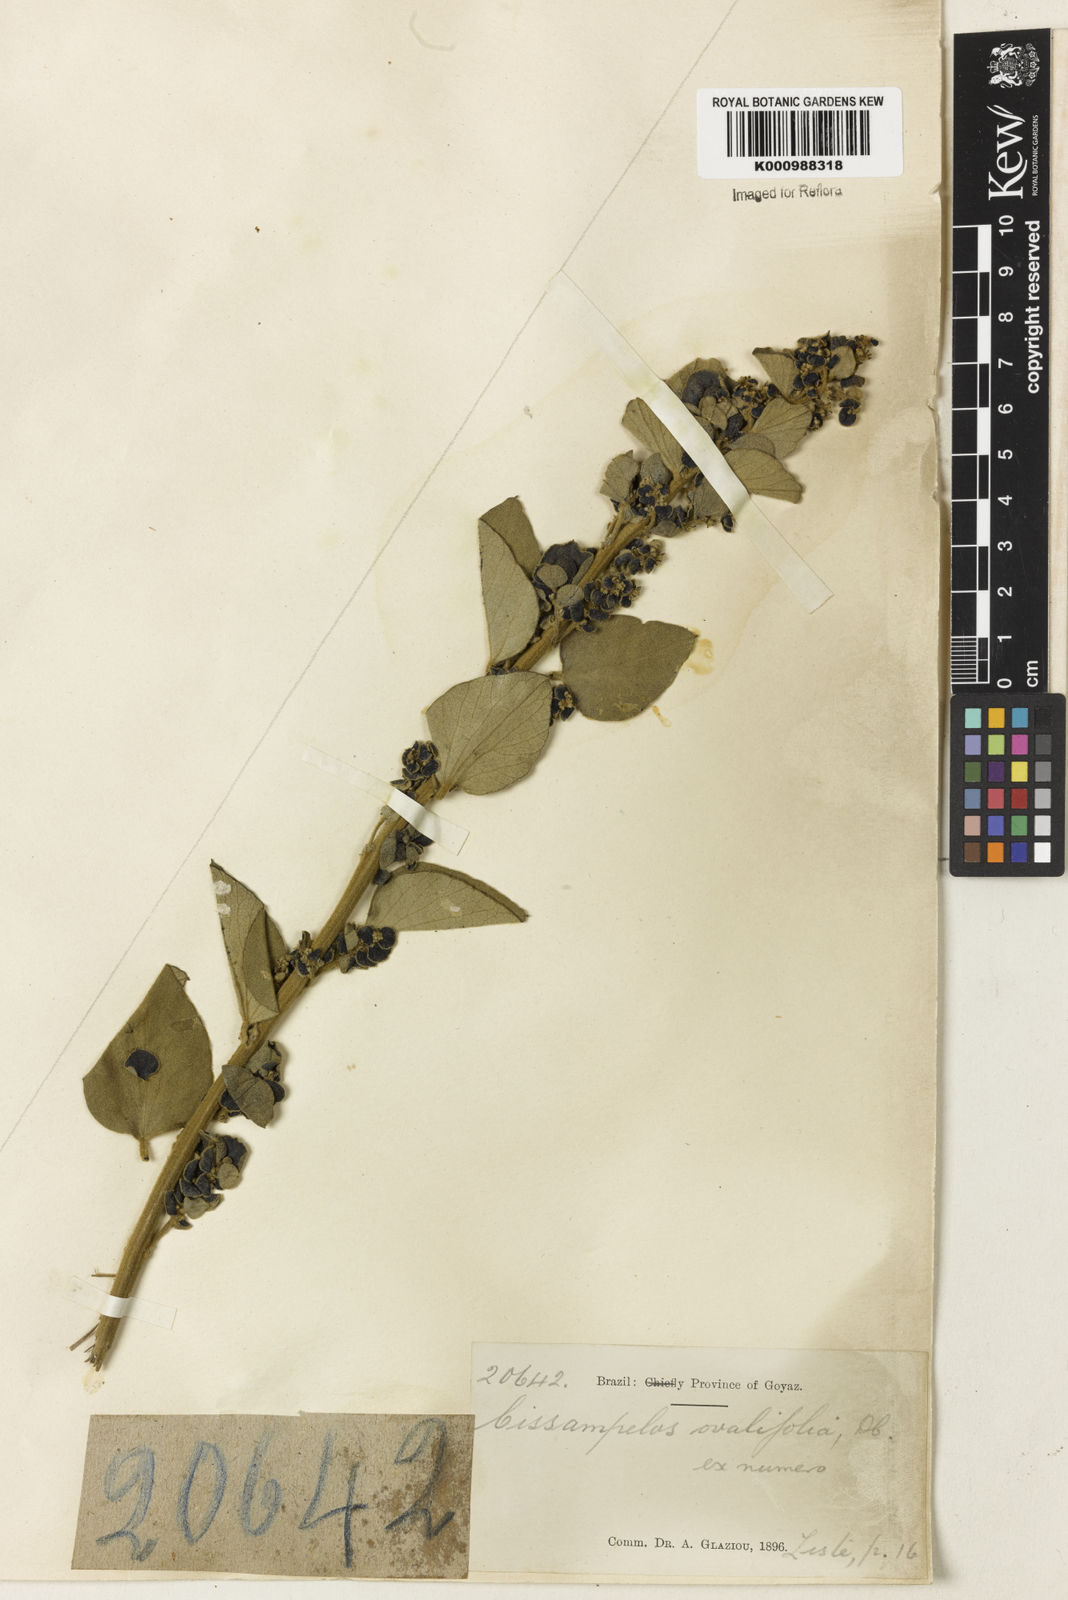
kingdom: Plantae
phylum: Tracheophyta
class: Magnoliopsida
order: Ranunculales
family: Menispermaceae
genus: Cissampelos
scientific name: Cissampelos ovalifolia
